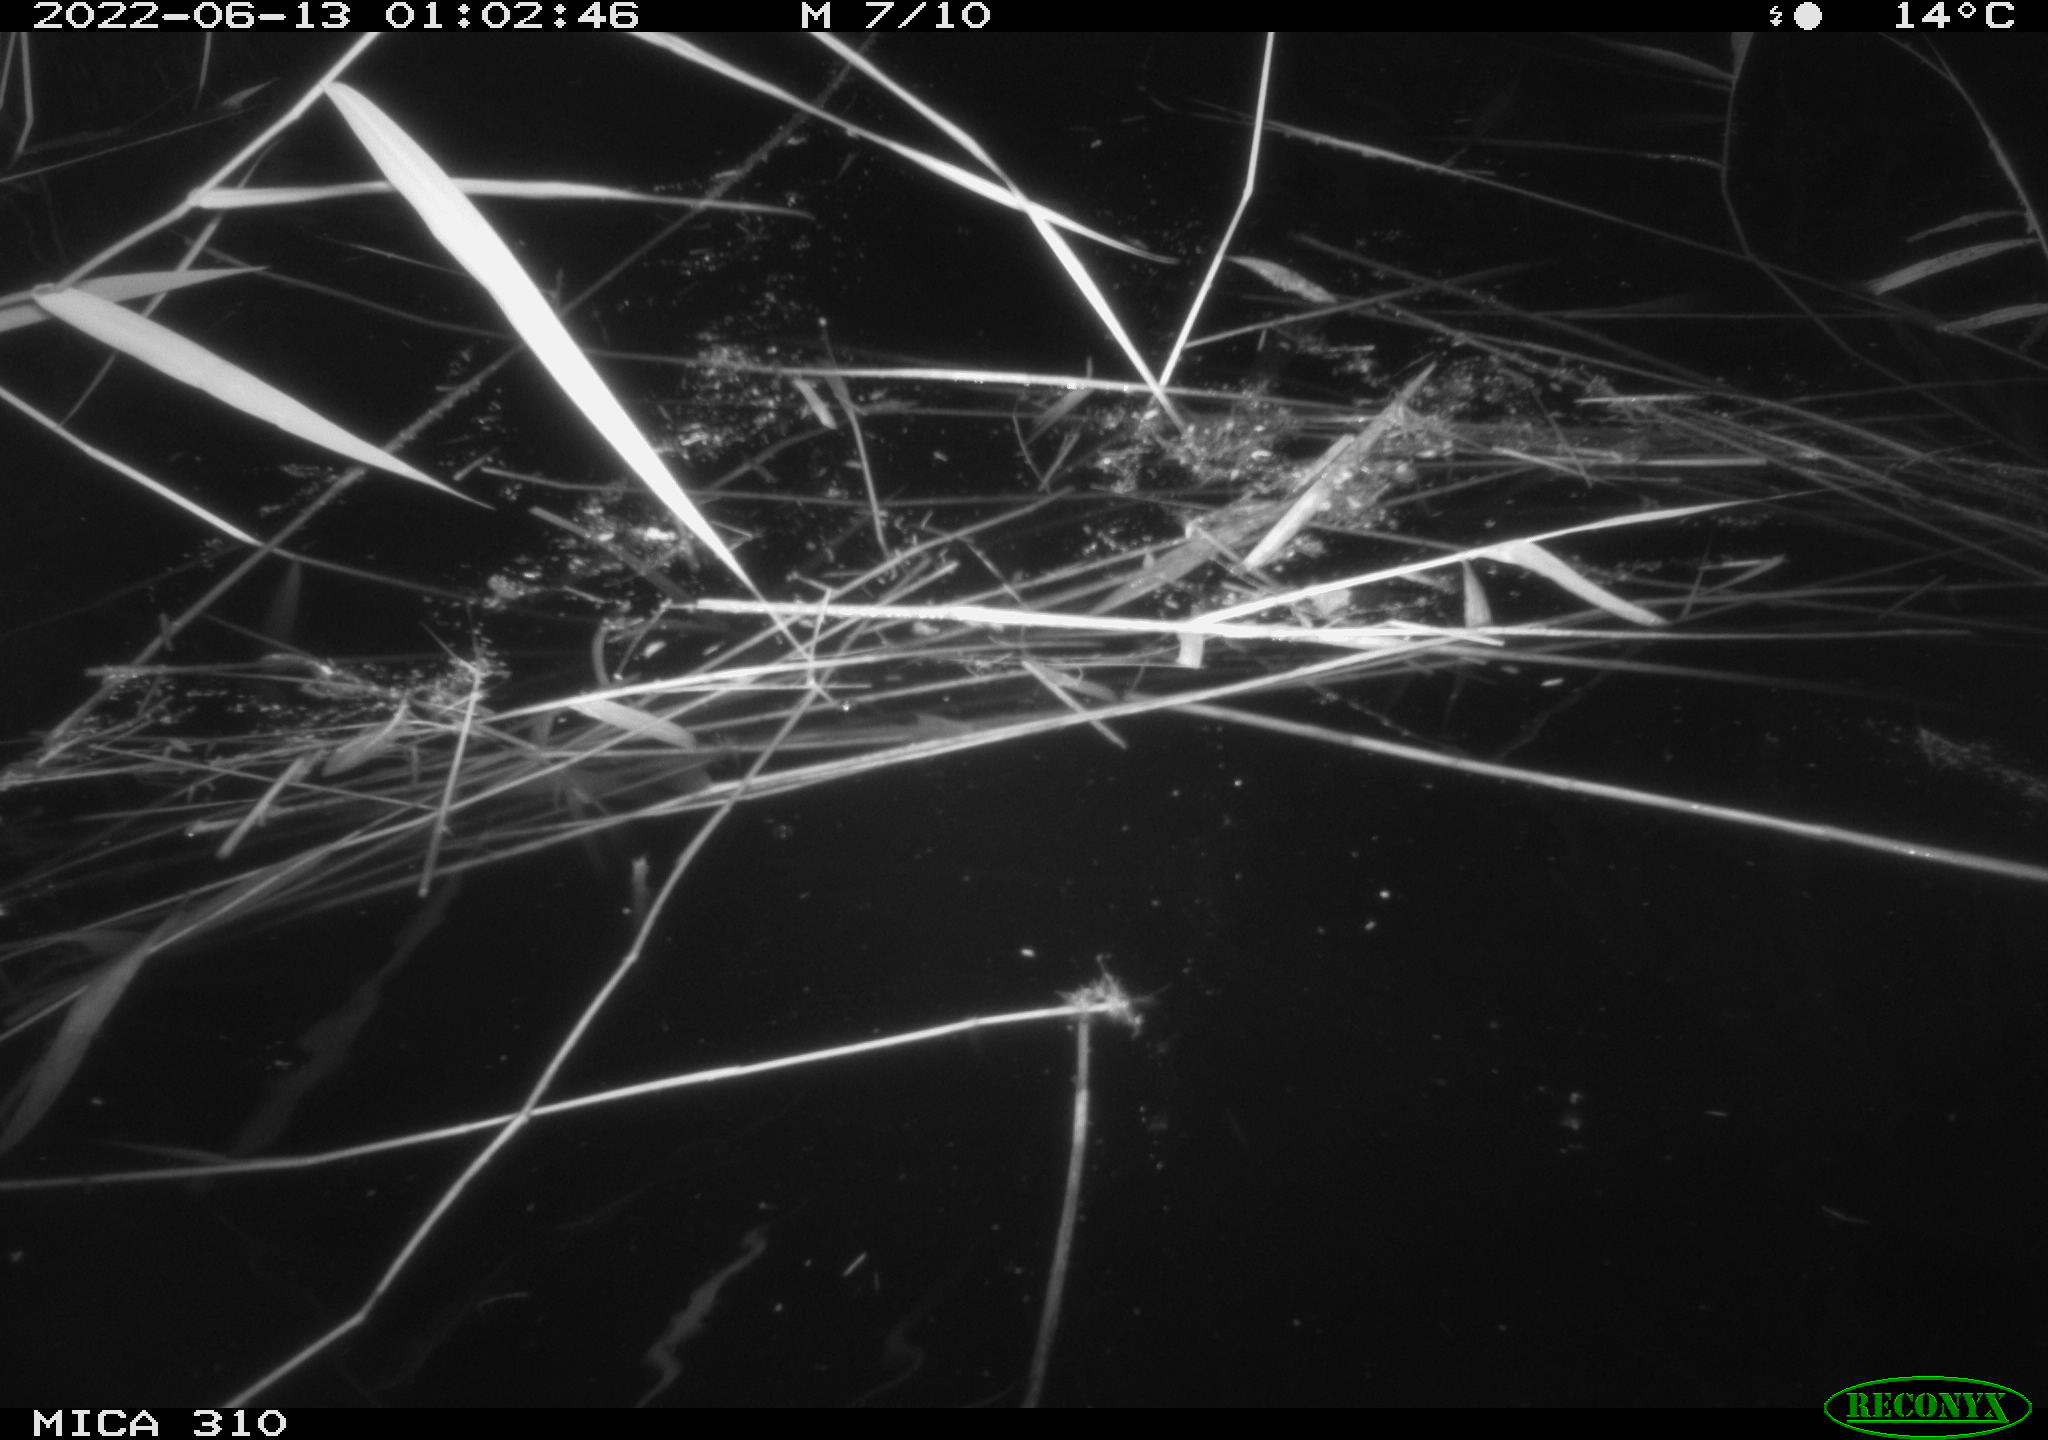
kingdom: Animalia
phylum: Chordata
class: Mammalia
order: Rodentia
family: Cricetidae
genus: Ondatra
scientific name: Ondatra zibethicus
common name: Muskrat
